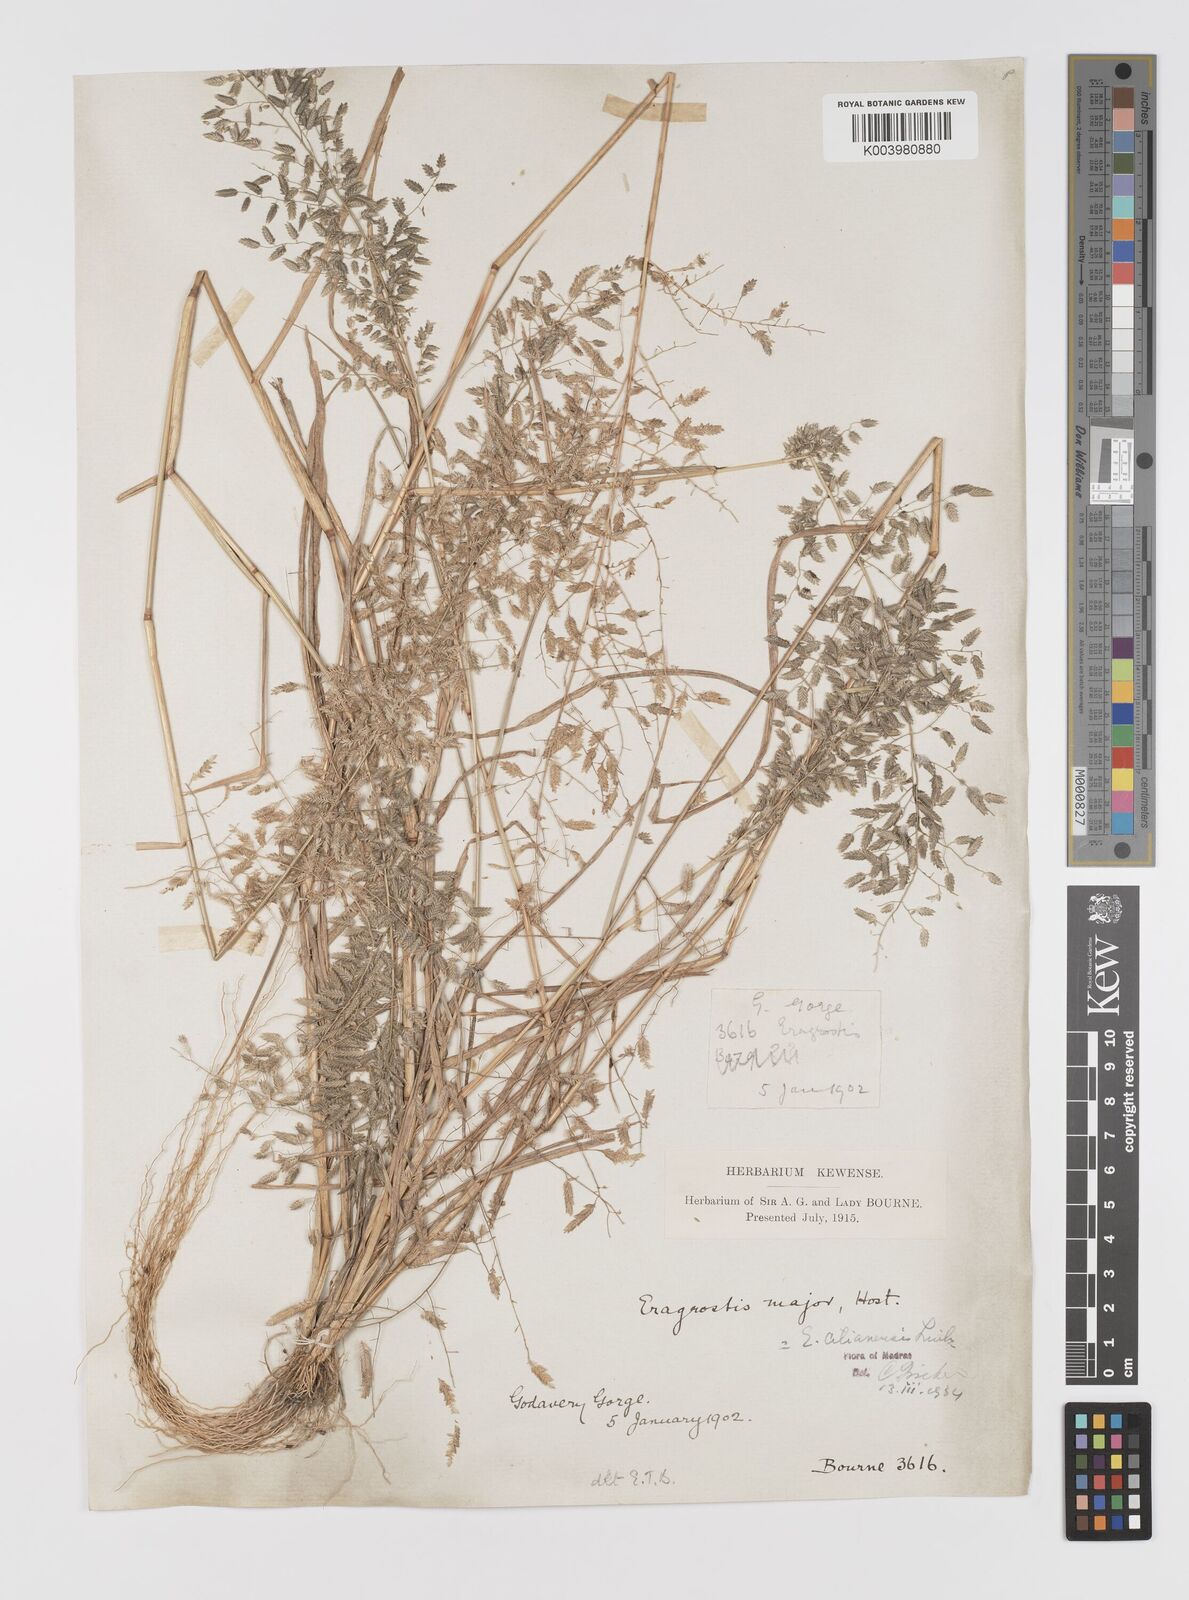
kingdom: Plantae
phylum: Tracheophyta
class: Liliopsida
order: Poales
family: Poaceae
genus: Eragrostis
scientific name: Eragrostis cilianensis
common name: Stinkgrass
